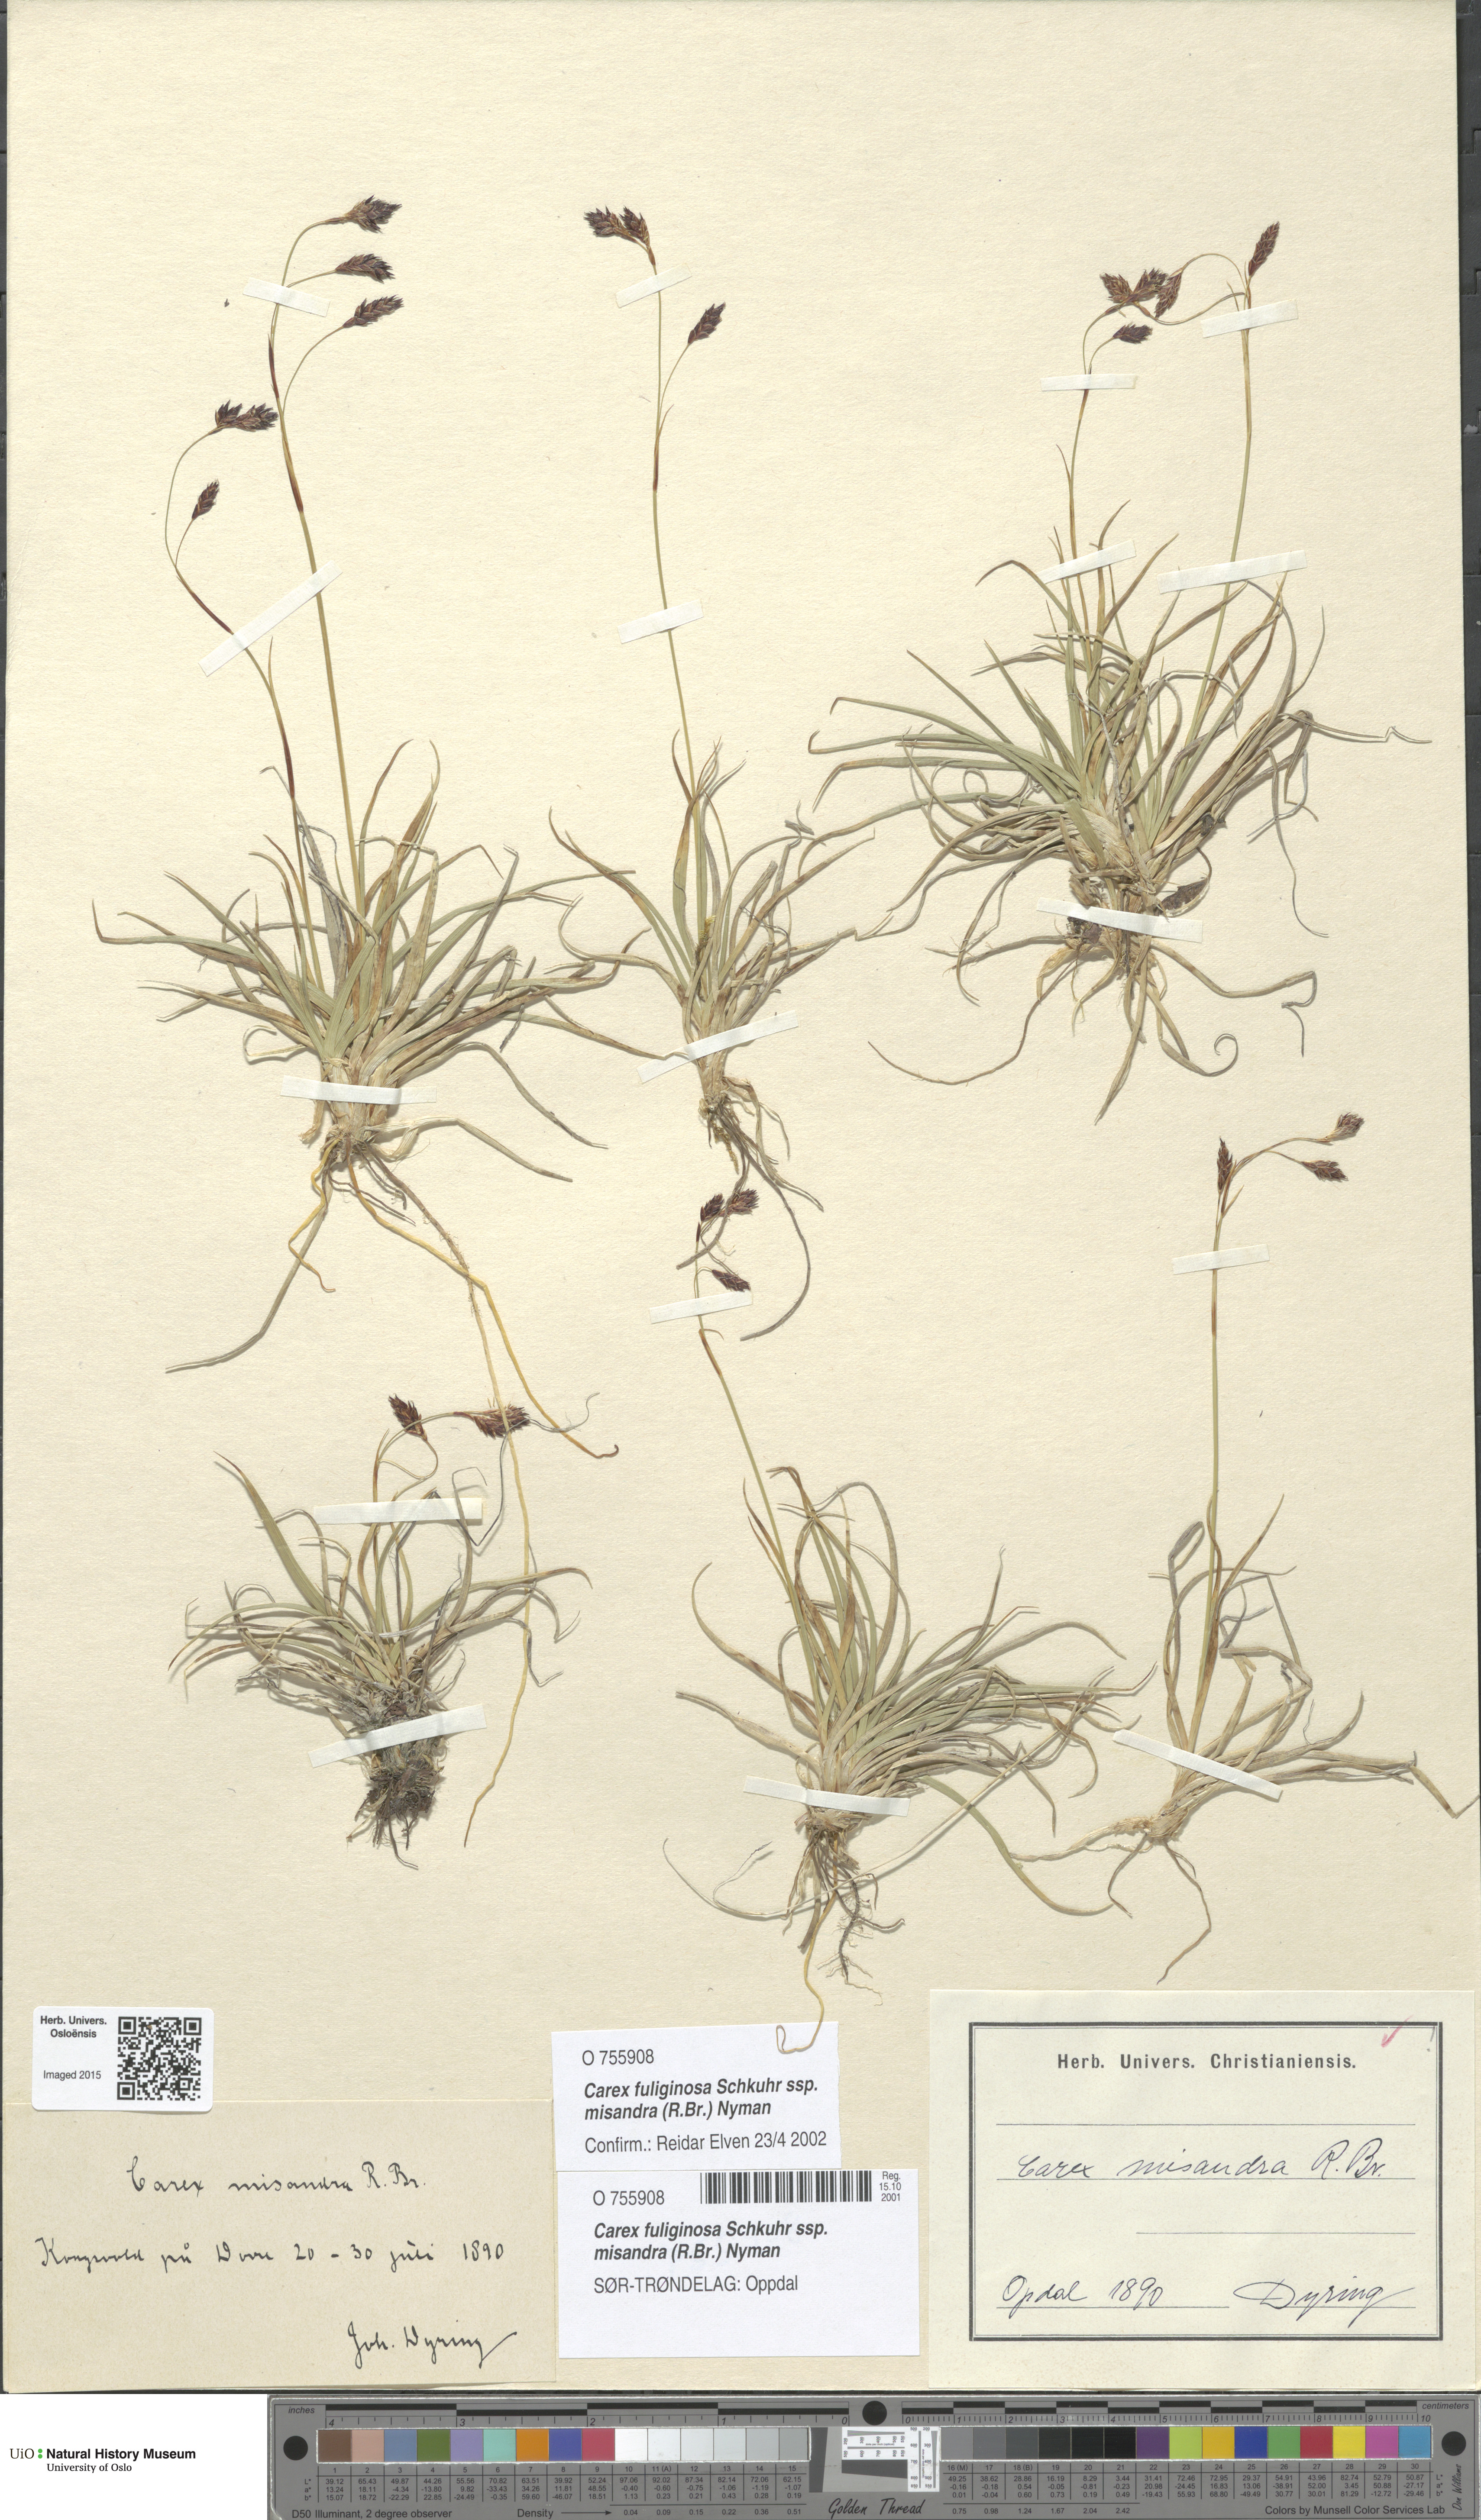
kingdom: Plantae
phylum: Tracheophyta
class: Liliopsida
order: Poales
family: Cyperaceae
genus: Carex
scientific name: Carex fuliginosa
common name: Few-flowered sedge
